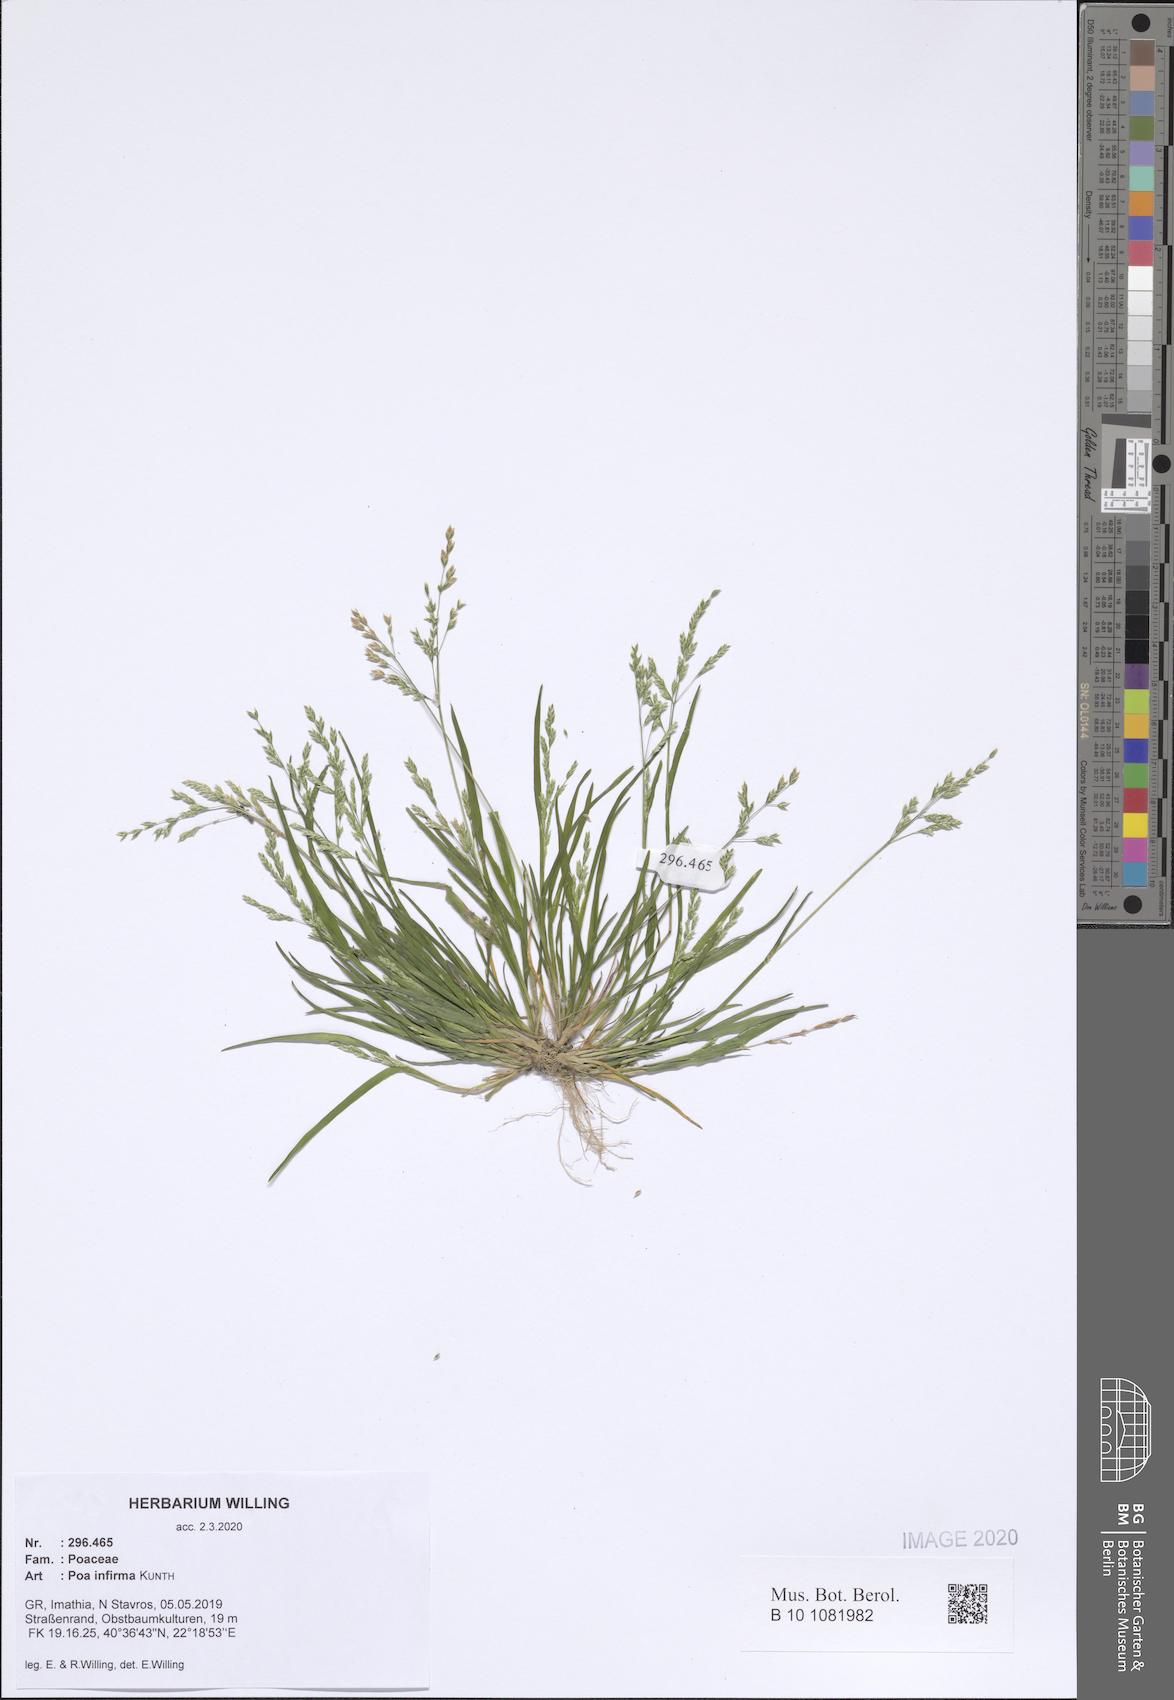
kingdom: Plantae
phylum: Tracheophyta
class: Liliopsida
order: Poales
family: Poaceae
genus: Poa
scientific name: Poa infirma
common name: Weak bluegrass
